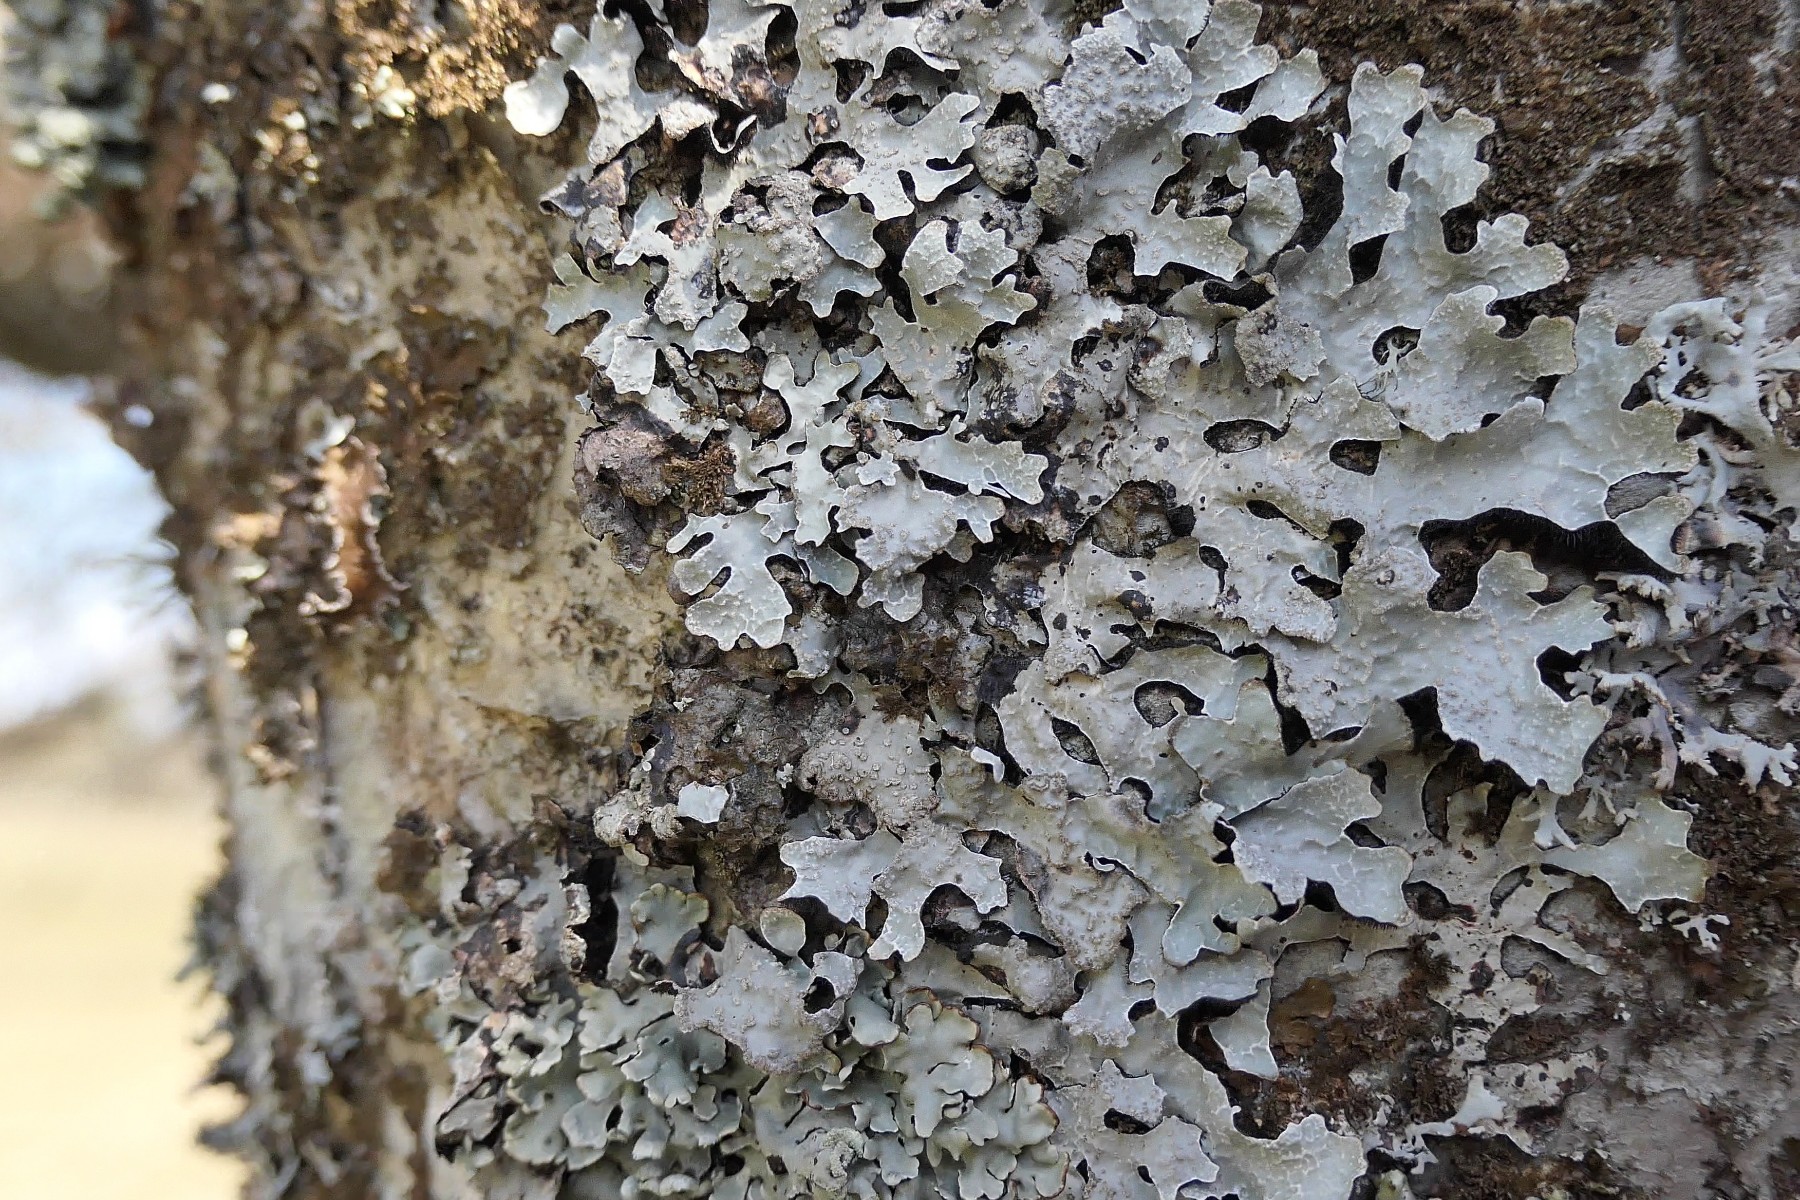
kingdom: Fungi
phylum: Ascomycota
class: Lecanoromycetes
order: Lecanorales
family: Parmeliaceae
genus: Parmelia
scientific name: Parmelia sulcata
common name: rynket skållav
